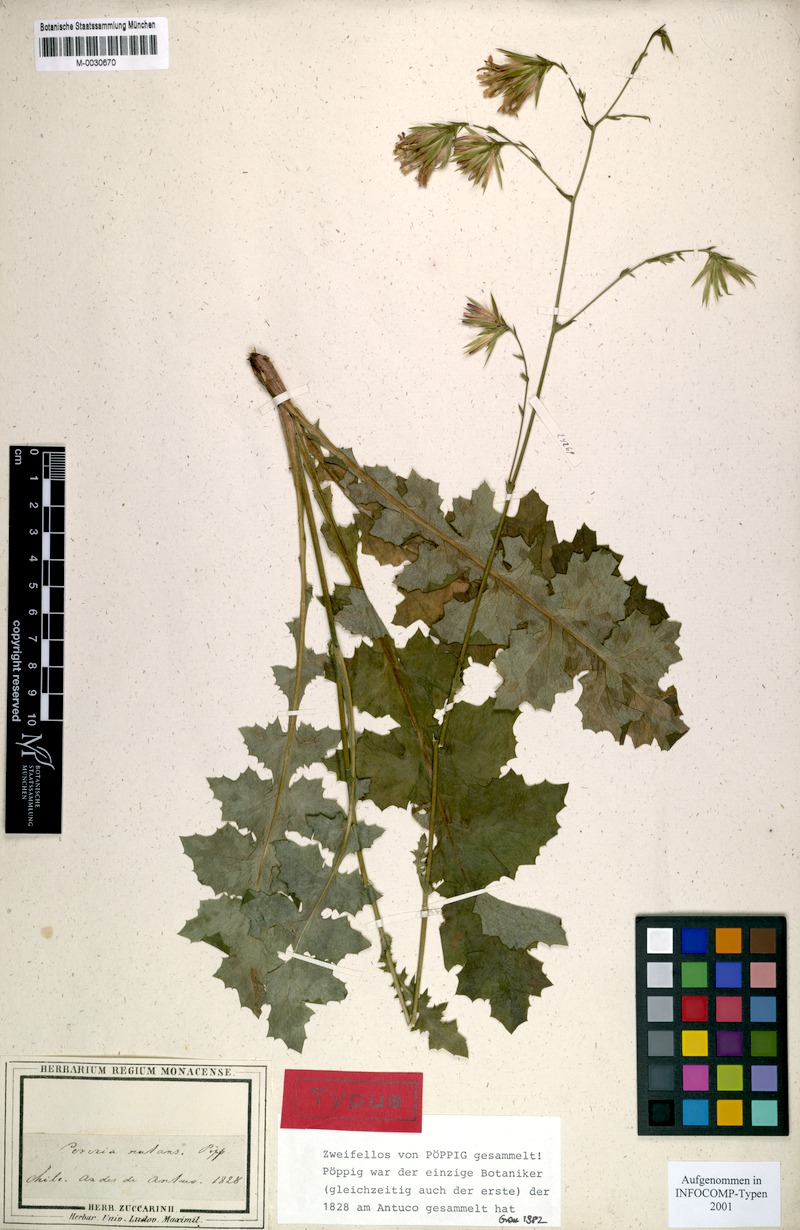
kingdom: Plantae
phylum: Tracheophyta
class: Magnoliopsida
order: Asterales
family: Asteraceae
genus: Perezia
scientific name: Perezia nutans
